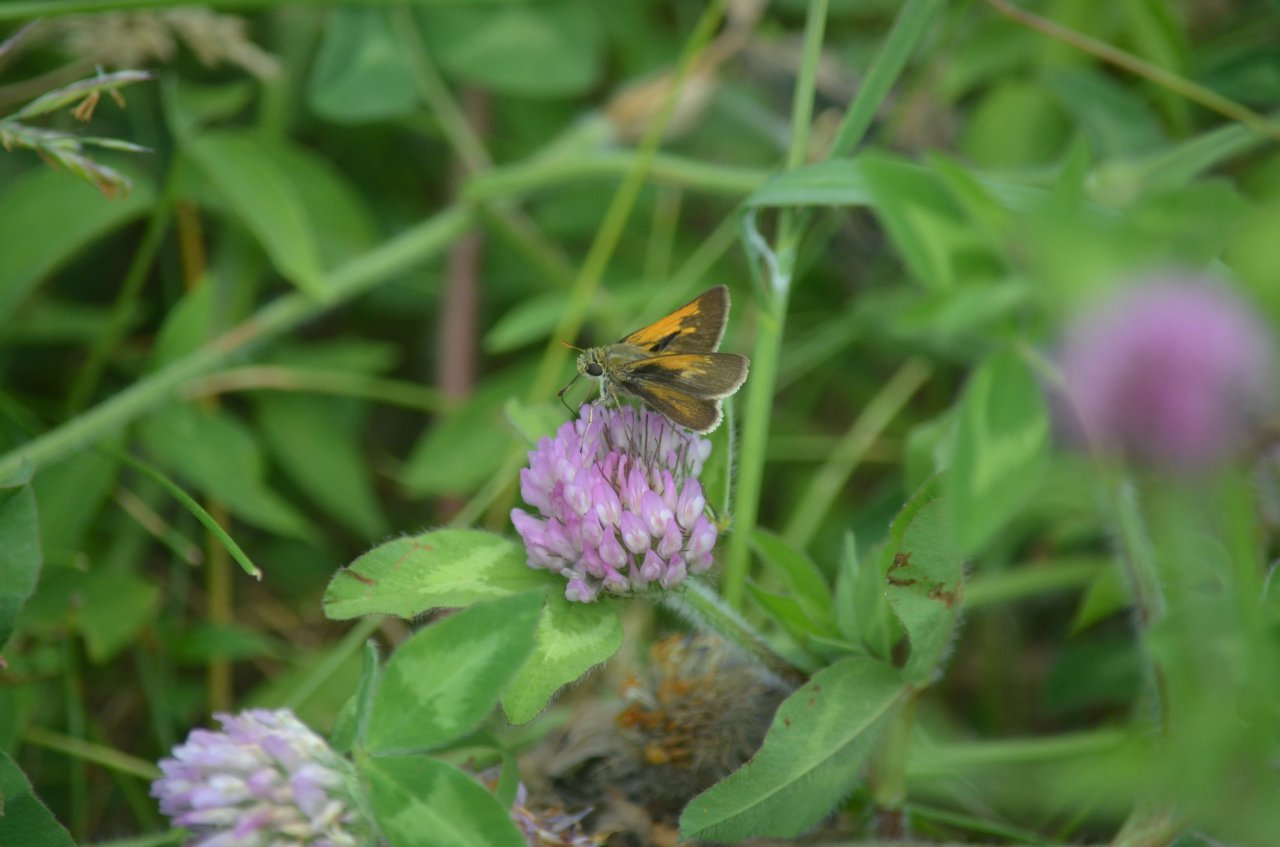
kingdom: Animalia
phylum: Arthropoda
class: Insecta
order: Lepidoptera
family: Hesperiidae
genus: Polites
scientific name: Polites themistocles
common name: Tawny-edged Skipper
